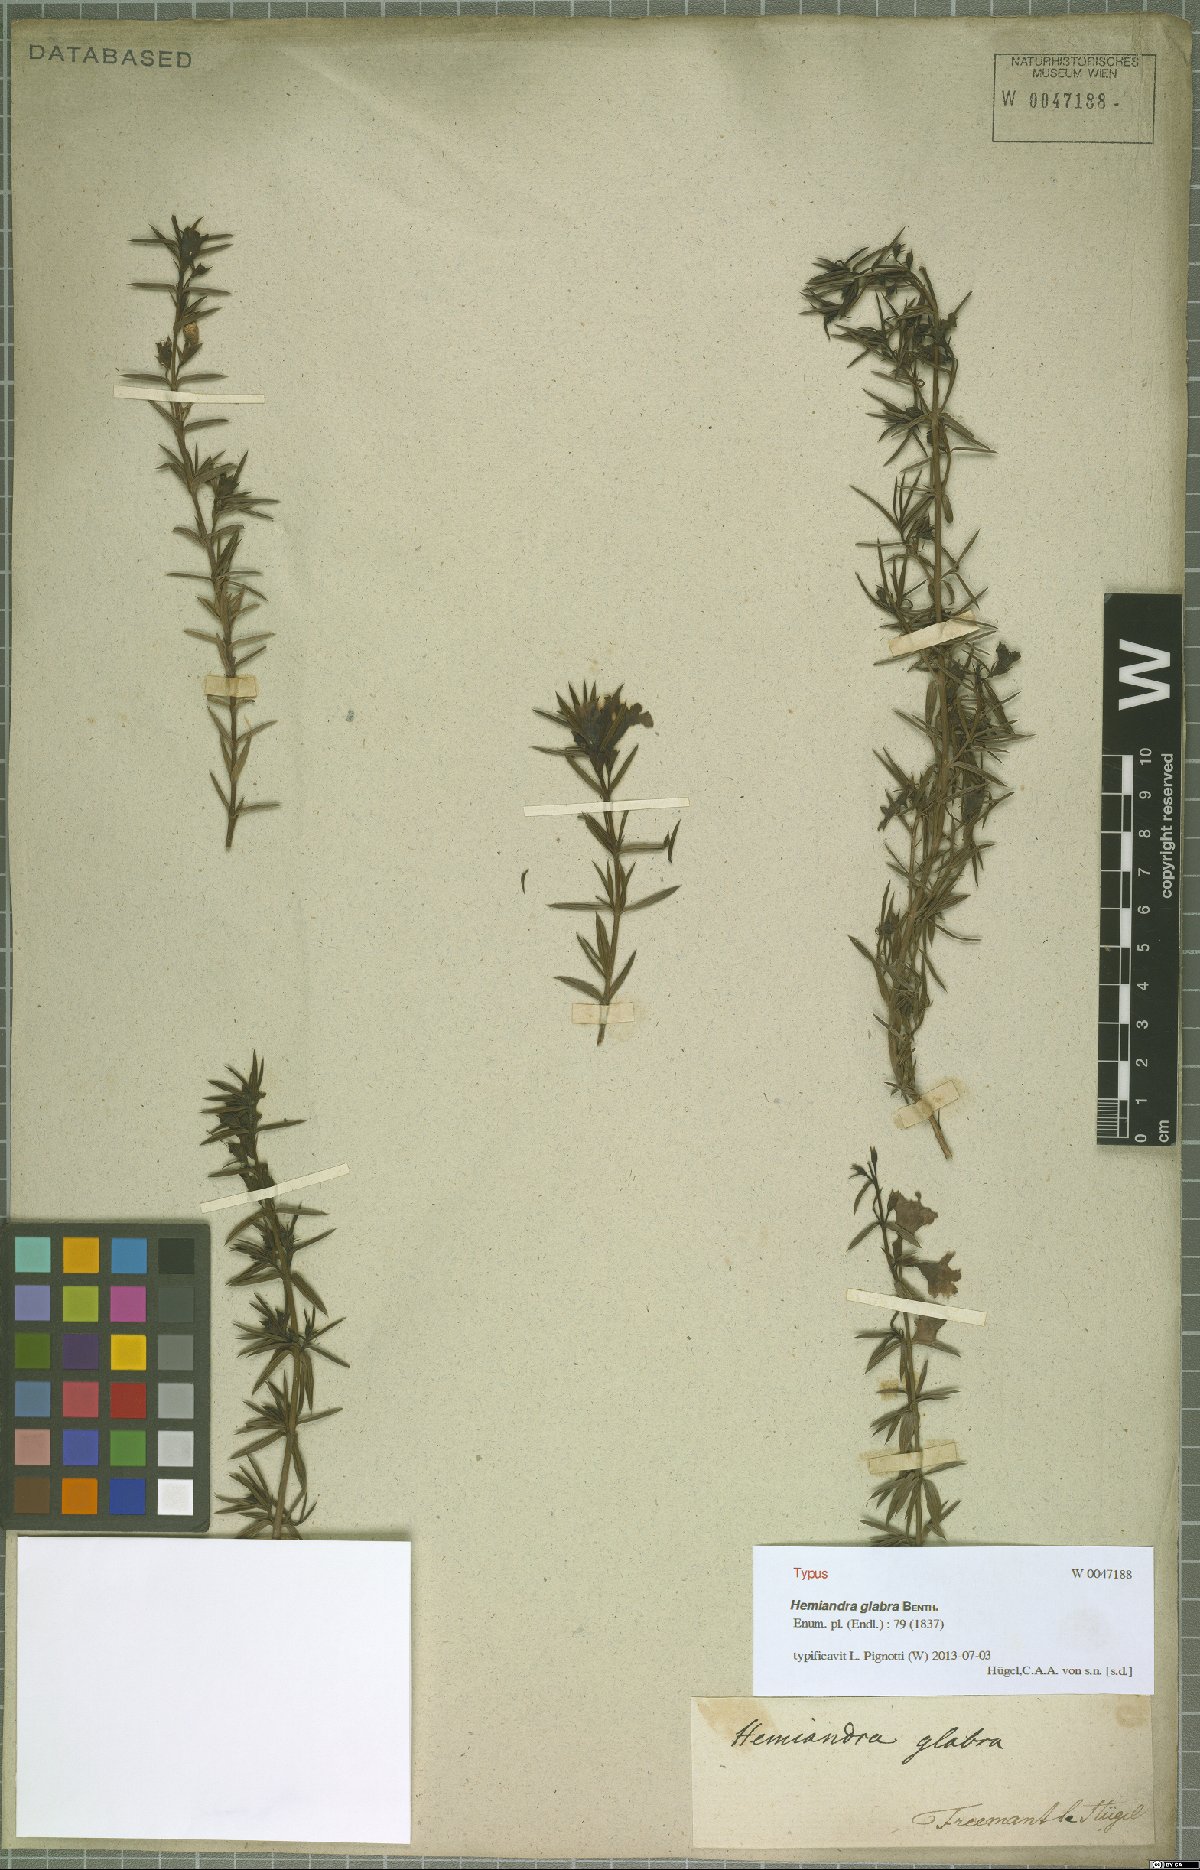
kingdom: Plantae
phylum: Tracheophyta
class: Magnoliopsida
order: Lamiales
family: Lamiaceae
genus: Hemiandra
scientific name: Hemiandra pungens
